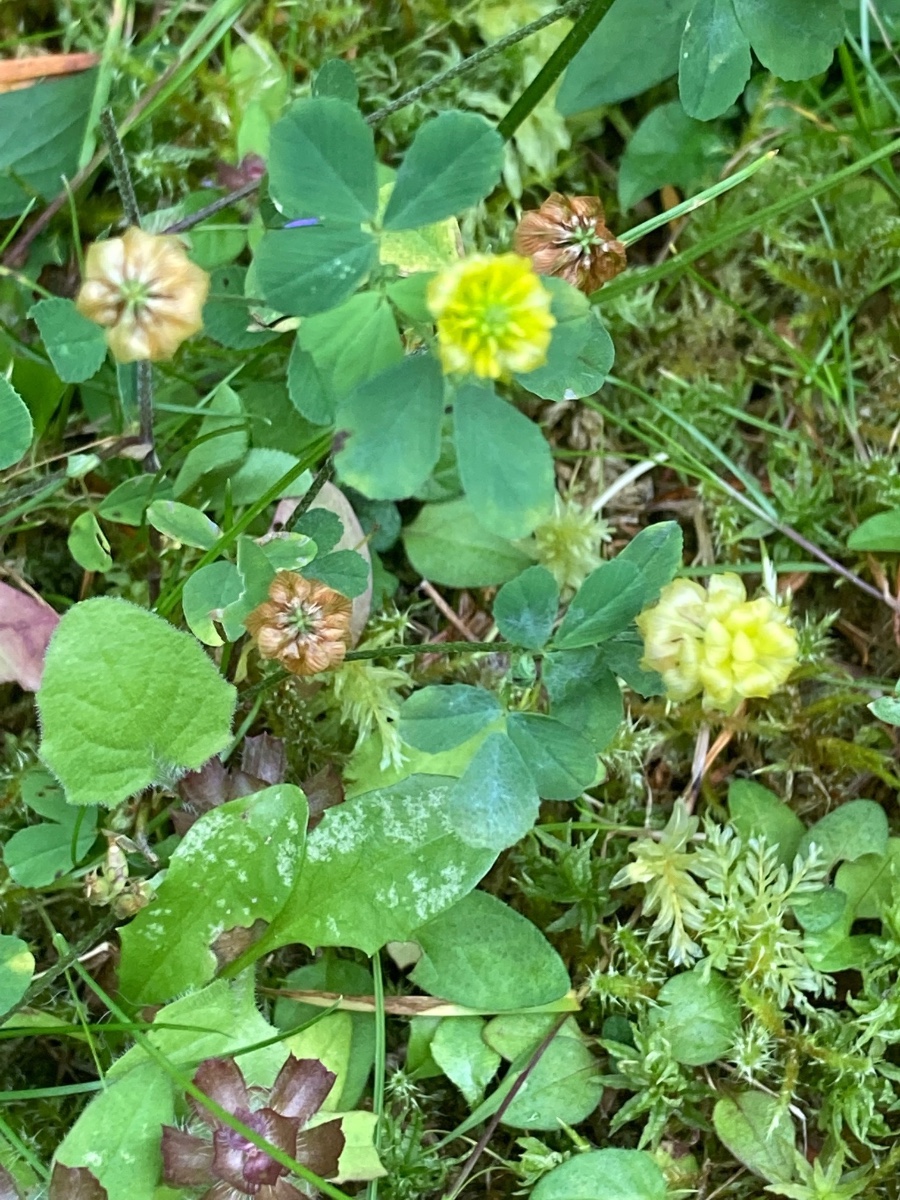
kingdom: Fungi
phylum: Ascomycota
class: Leotiomycetes
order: Helotiales
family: Erysiphaceae
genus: Erysiphe
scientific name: Erysiphe trifoliorum
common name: kløver-meldug
